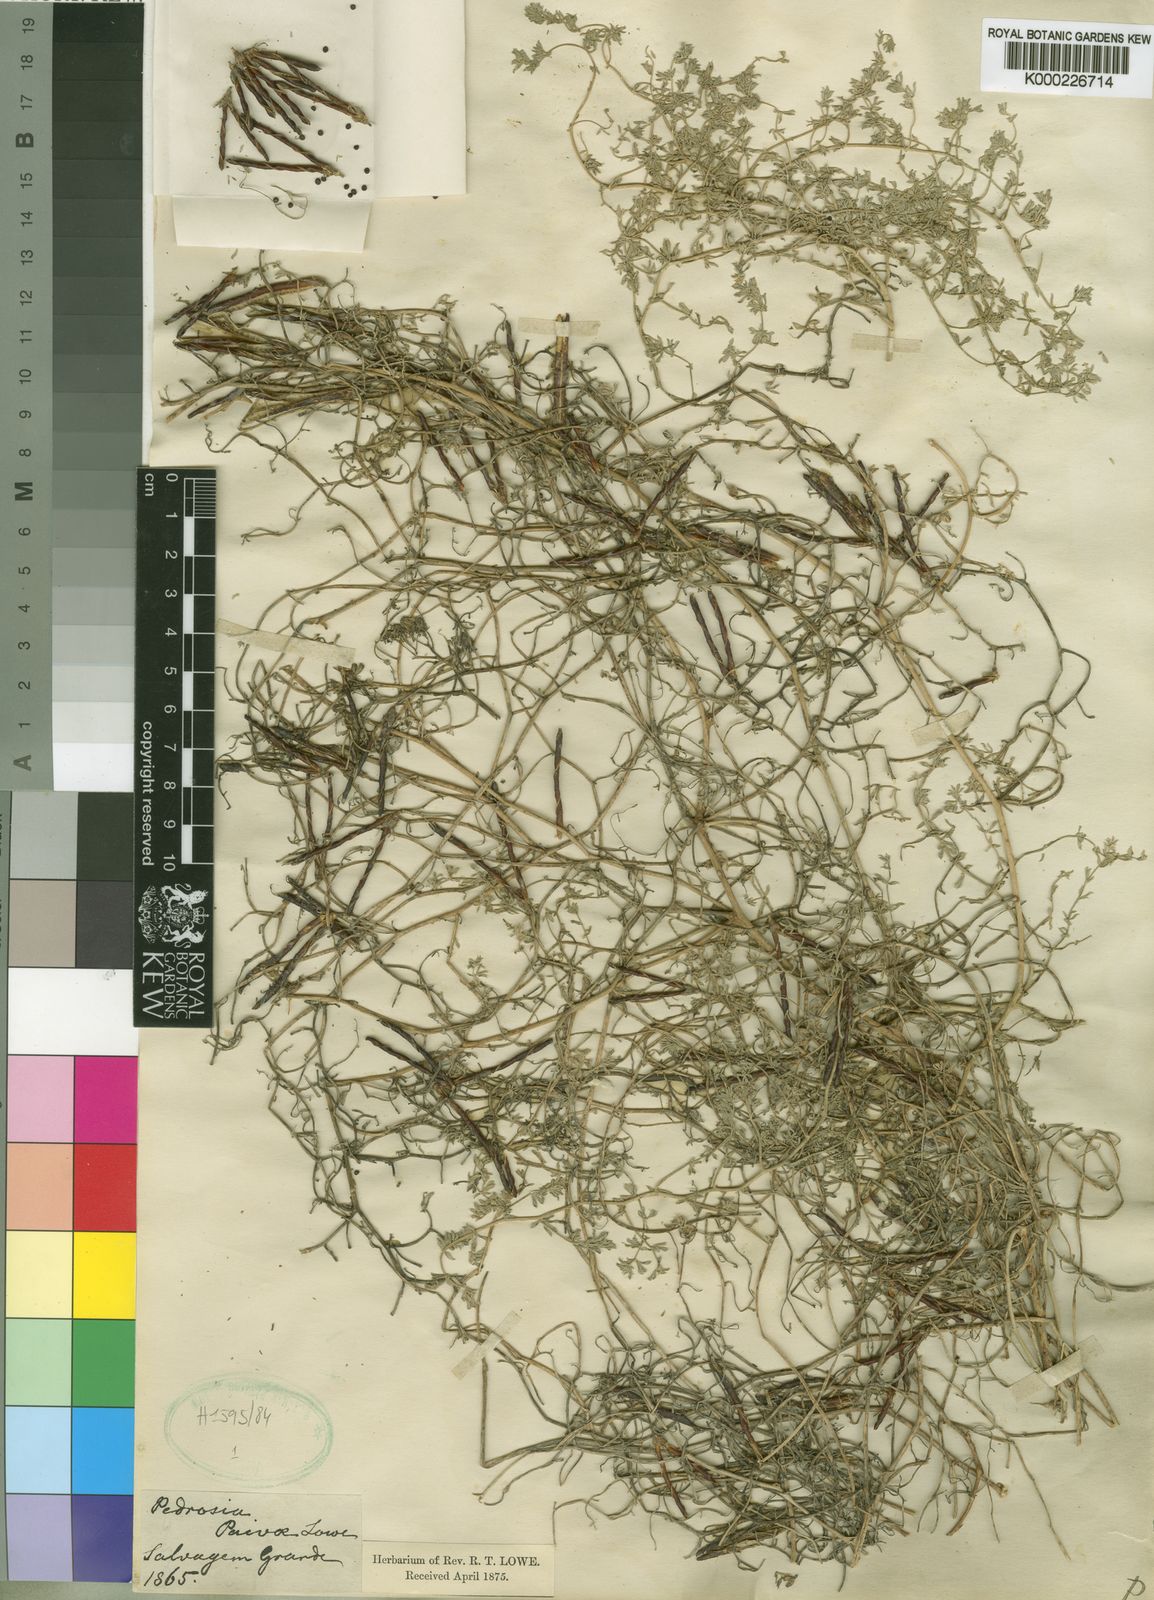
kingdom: Plantae
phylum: Tracheophyta
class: Magnoliopsida
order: Fabales
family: Fabaceae
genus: Lotus
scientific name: Lotus
